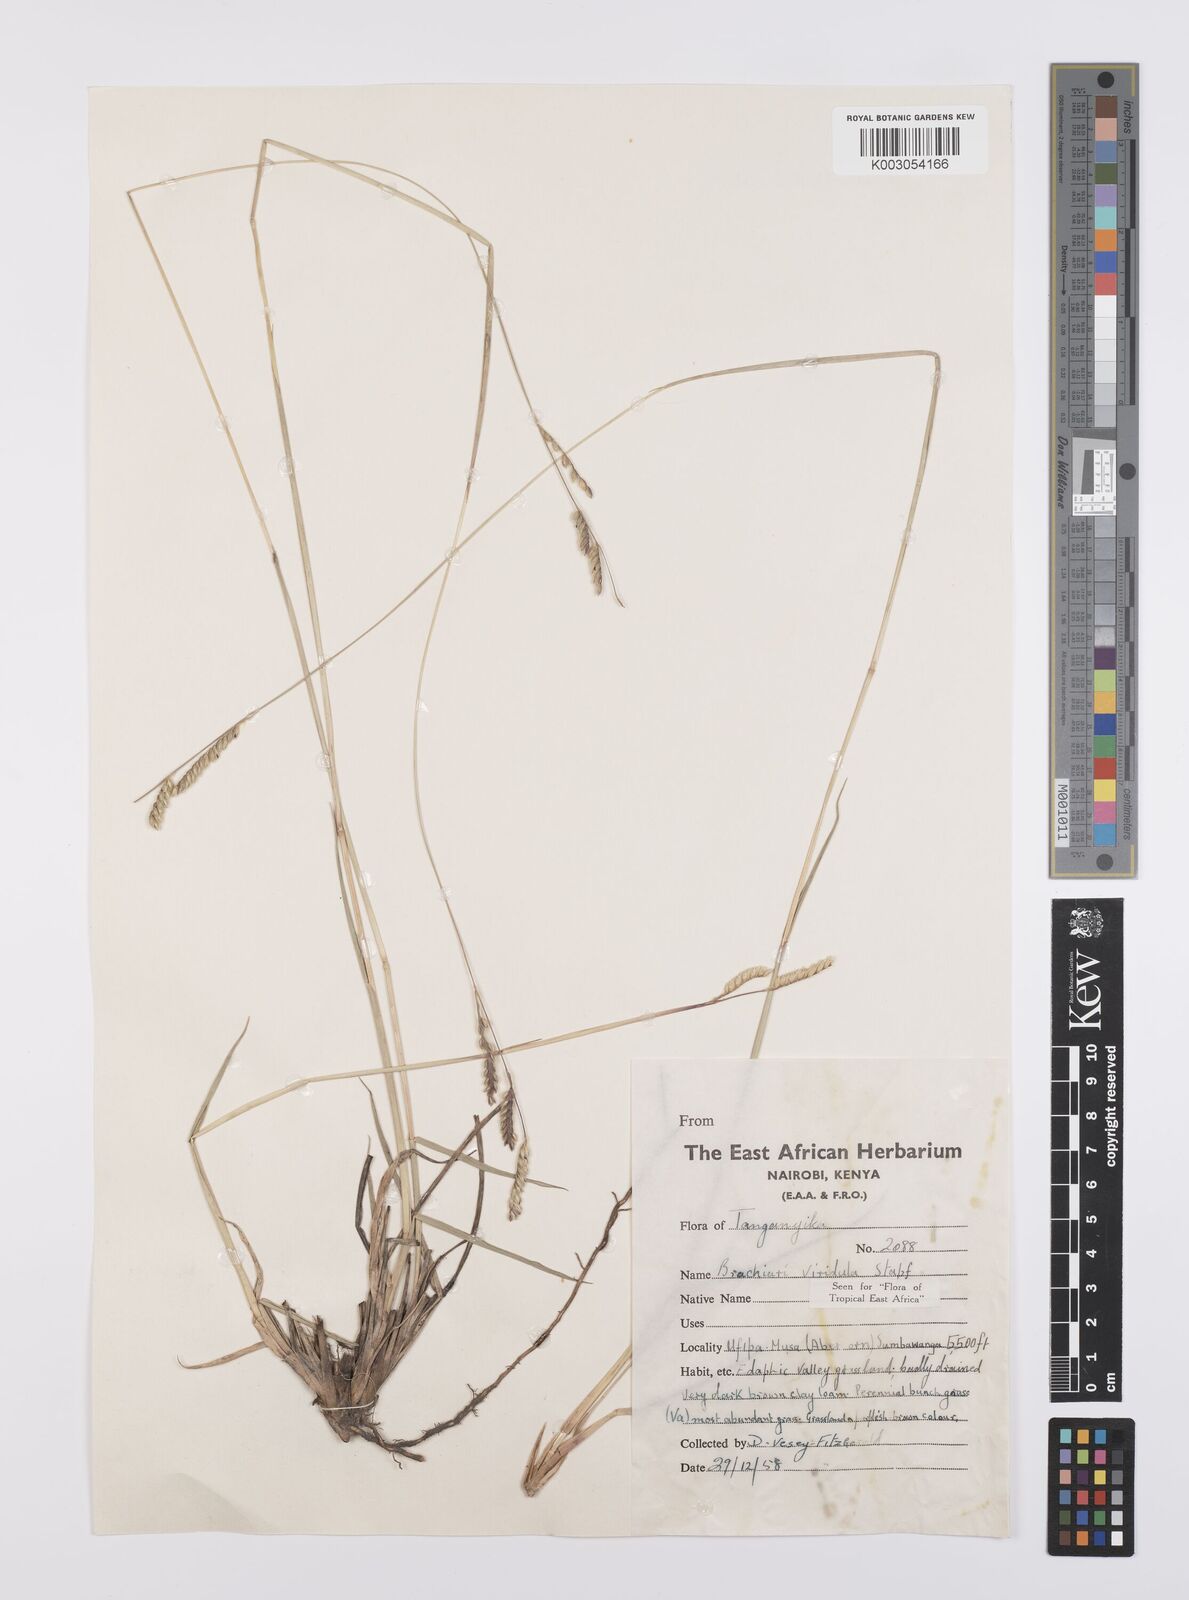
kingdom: Plantae
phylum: Tracheophyta
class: Liliopsida
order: Poales
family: Poaceae
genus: Urochloa
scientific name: Urochloa bovonei
